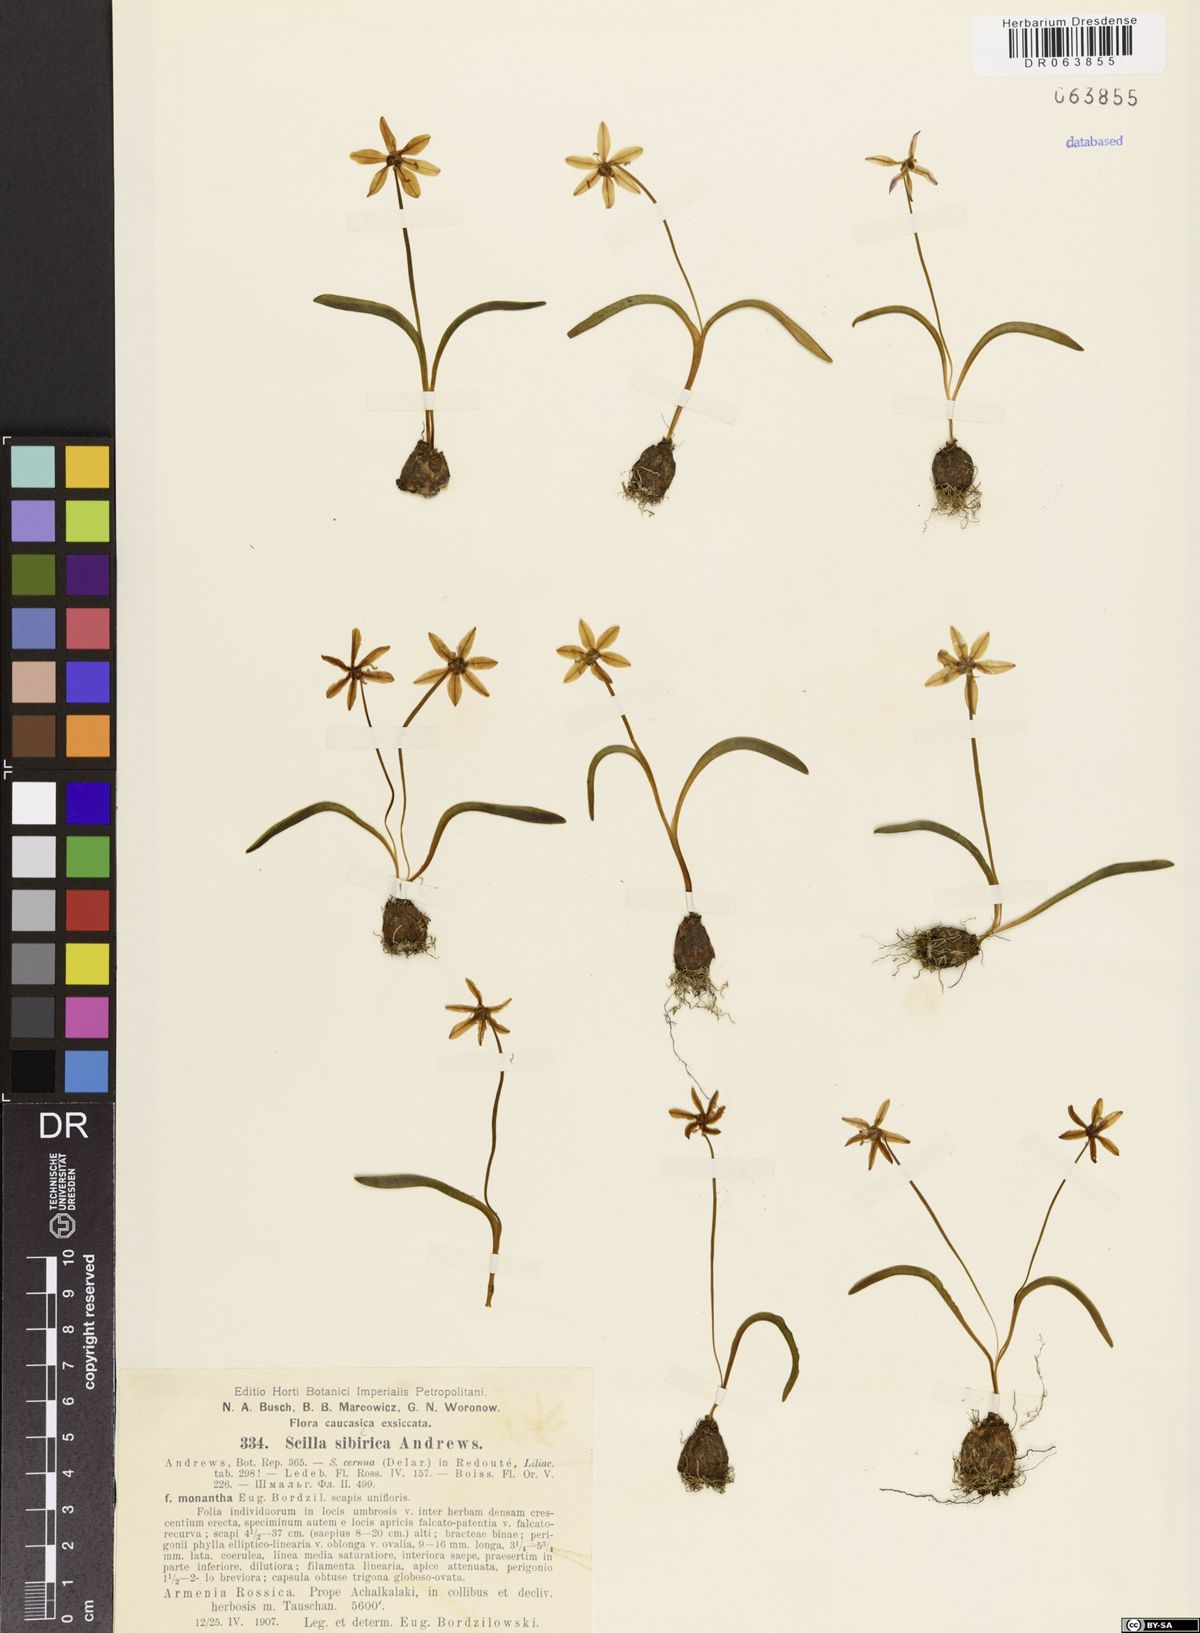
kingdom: Plantae
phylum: Tracheophyta
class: Liliopsida
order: Asparagales
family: Asparagaceae
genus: Scilla
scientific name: Scilla siberica
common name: Siberian squill
